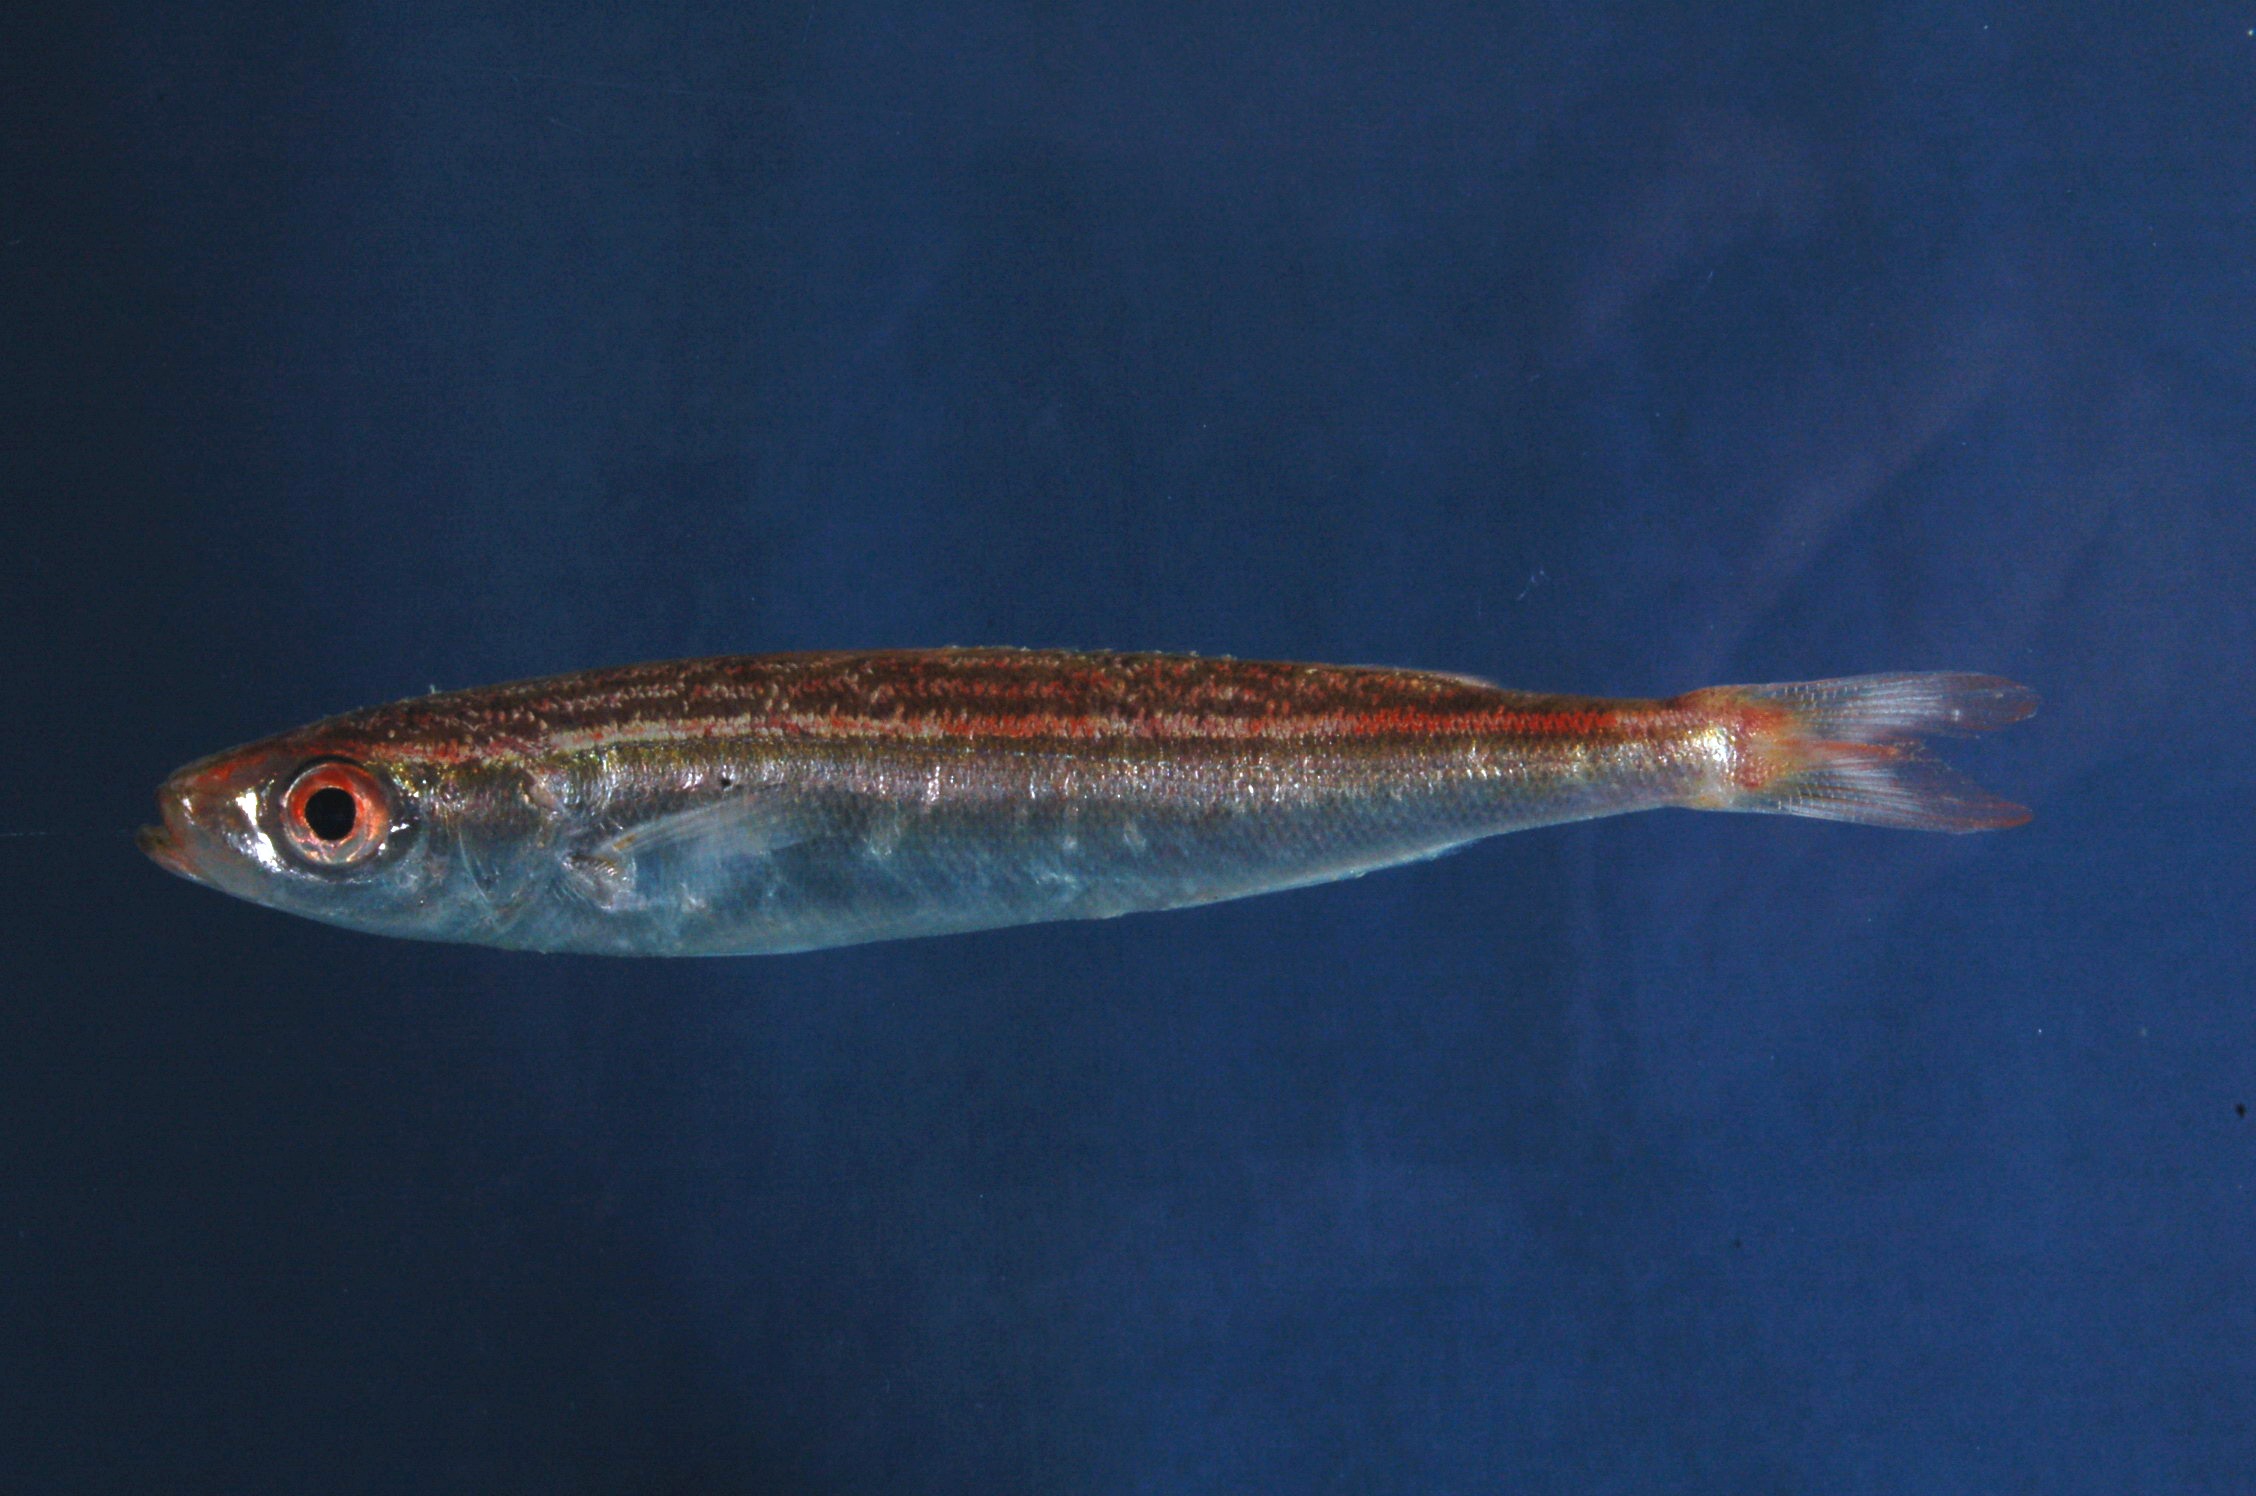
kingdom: Animalia
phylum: Chordata
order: Perciformes
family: Caesionidae
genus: Dipterygonotus
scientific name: Dipterygonotus balteatus
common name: Mottled fusilier
